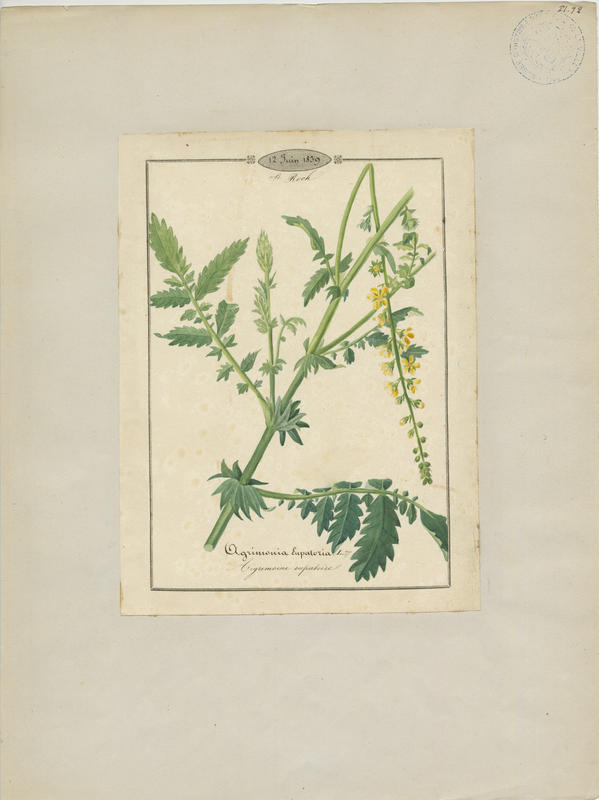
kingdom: Plantae
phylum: Tracheophyta
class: Magnoliopsida
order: Rosales
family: Rosaceae
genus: Agrimonia
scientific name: Agrimonia eupatoria
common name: Agrimony
